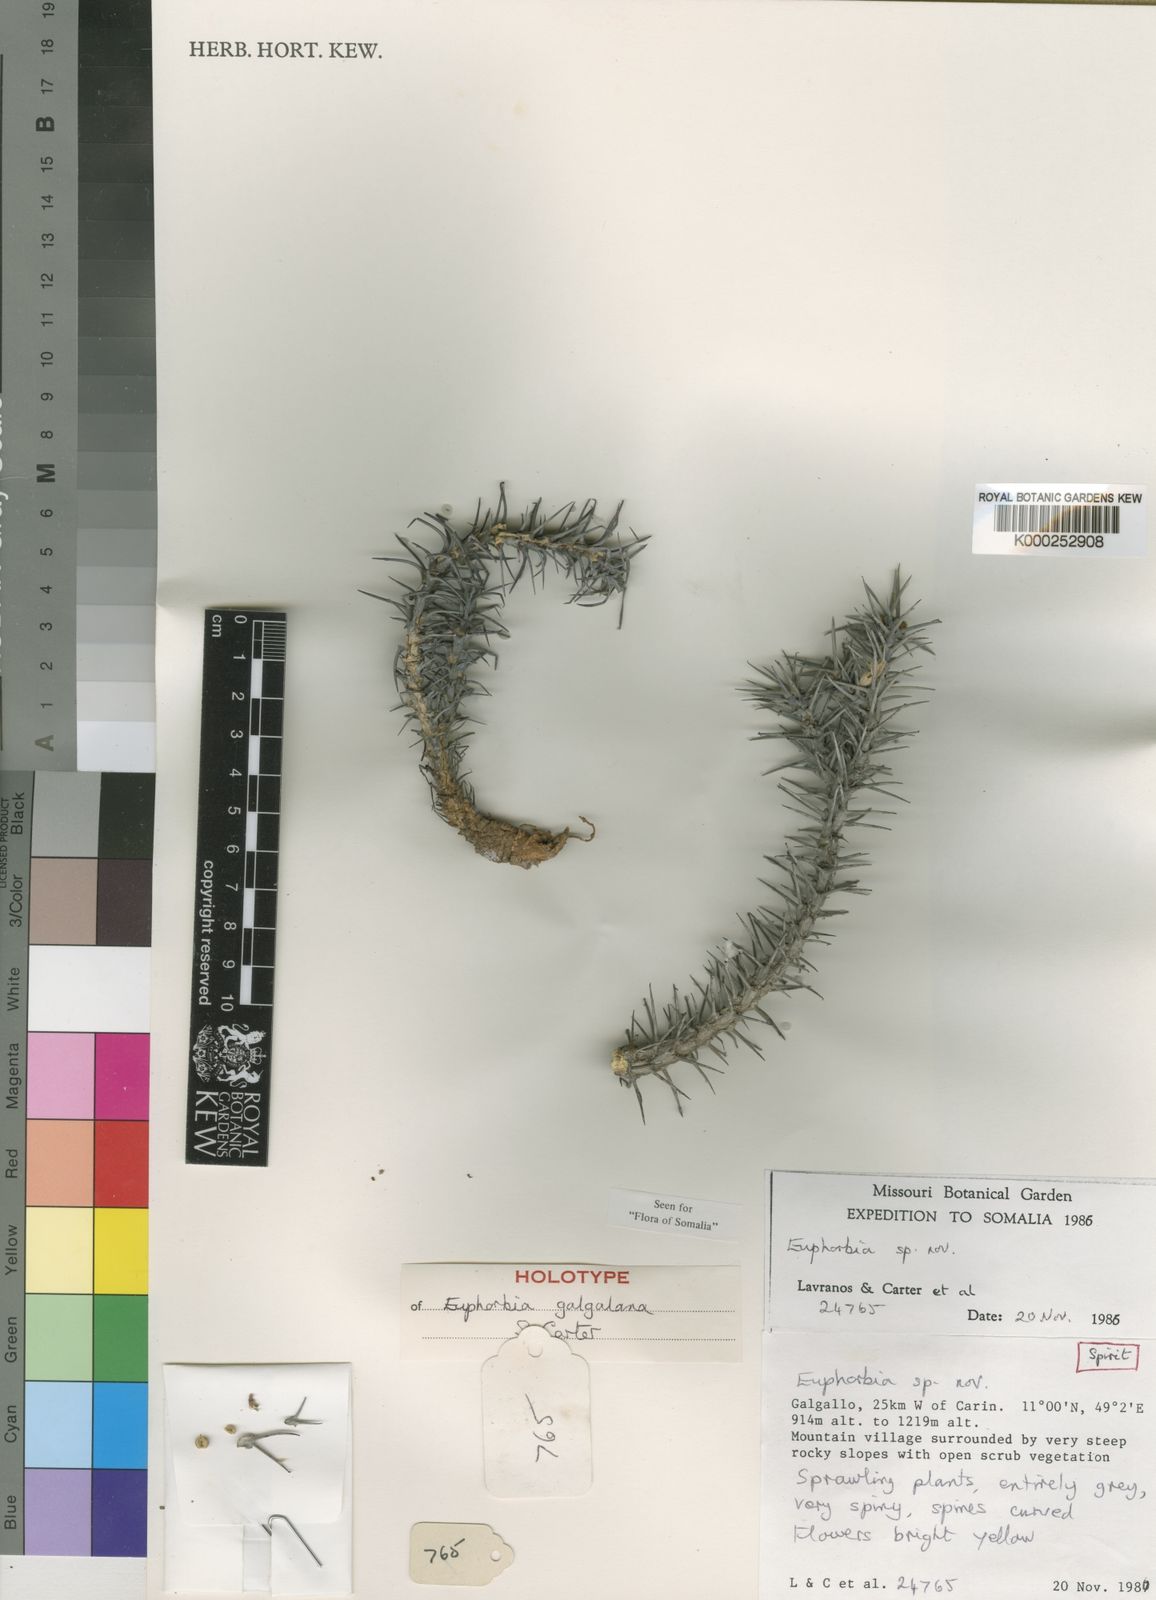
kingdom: Plantae
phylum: Tracheophyta
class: Magnoliopsida
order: Malpighiales
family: Euphorbiaceae
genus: Euphorbia
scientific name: Euphorbia galgalana
